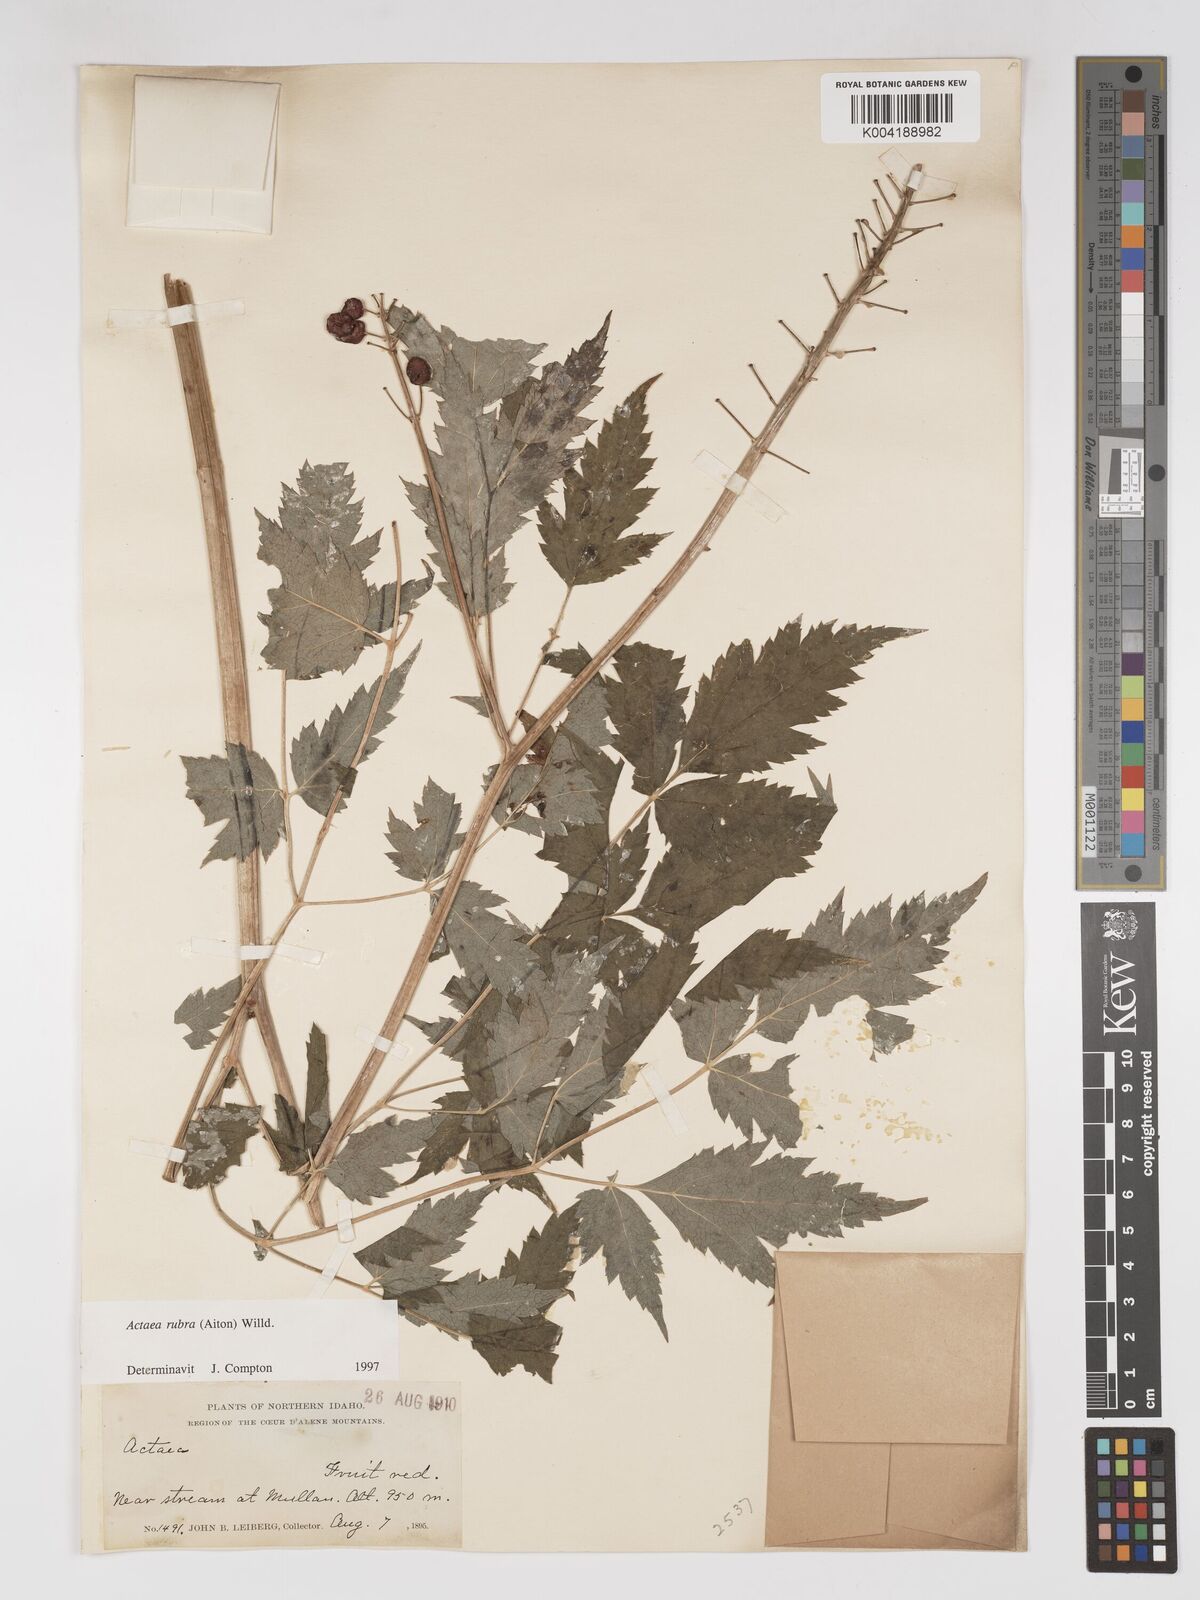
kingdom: Plantae
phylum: Tracheophyta
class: Magnoliopsida
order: Ranunculales
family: Ranunculaceae
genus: Actaea
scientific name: Actaea
